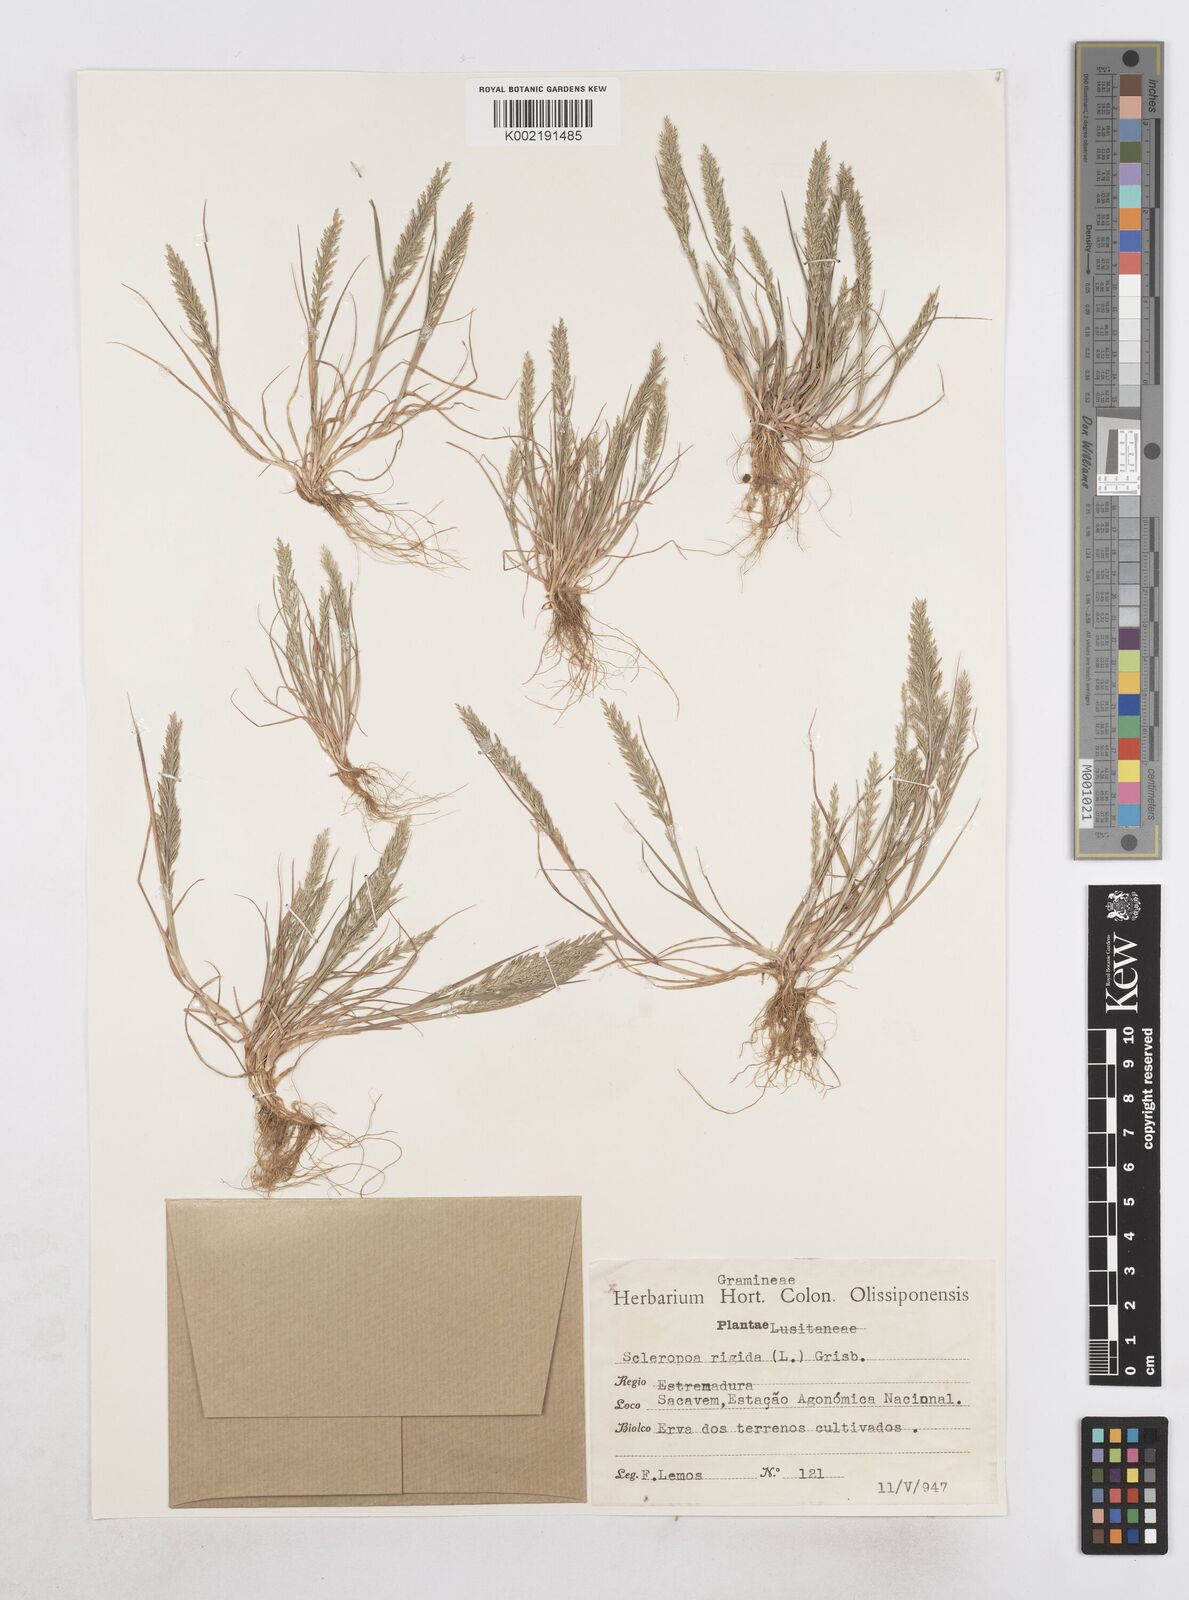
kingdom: Plantae
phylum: Tracheophyta
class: Liliopsida
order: Poales
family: Poaceae
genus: Catapodium
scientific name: Catapodium rigidum
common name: Fern-grass
